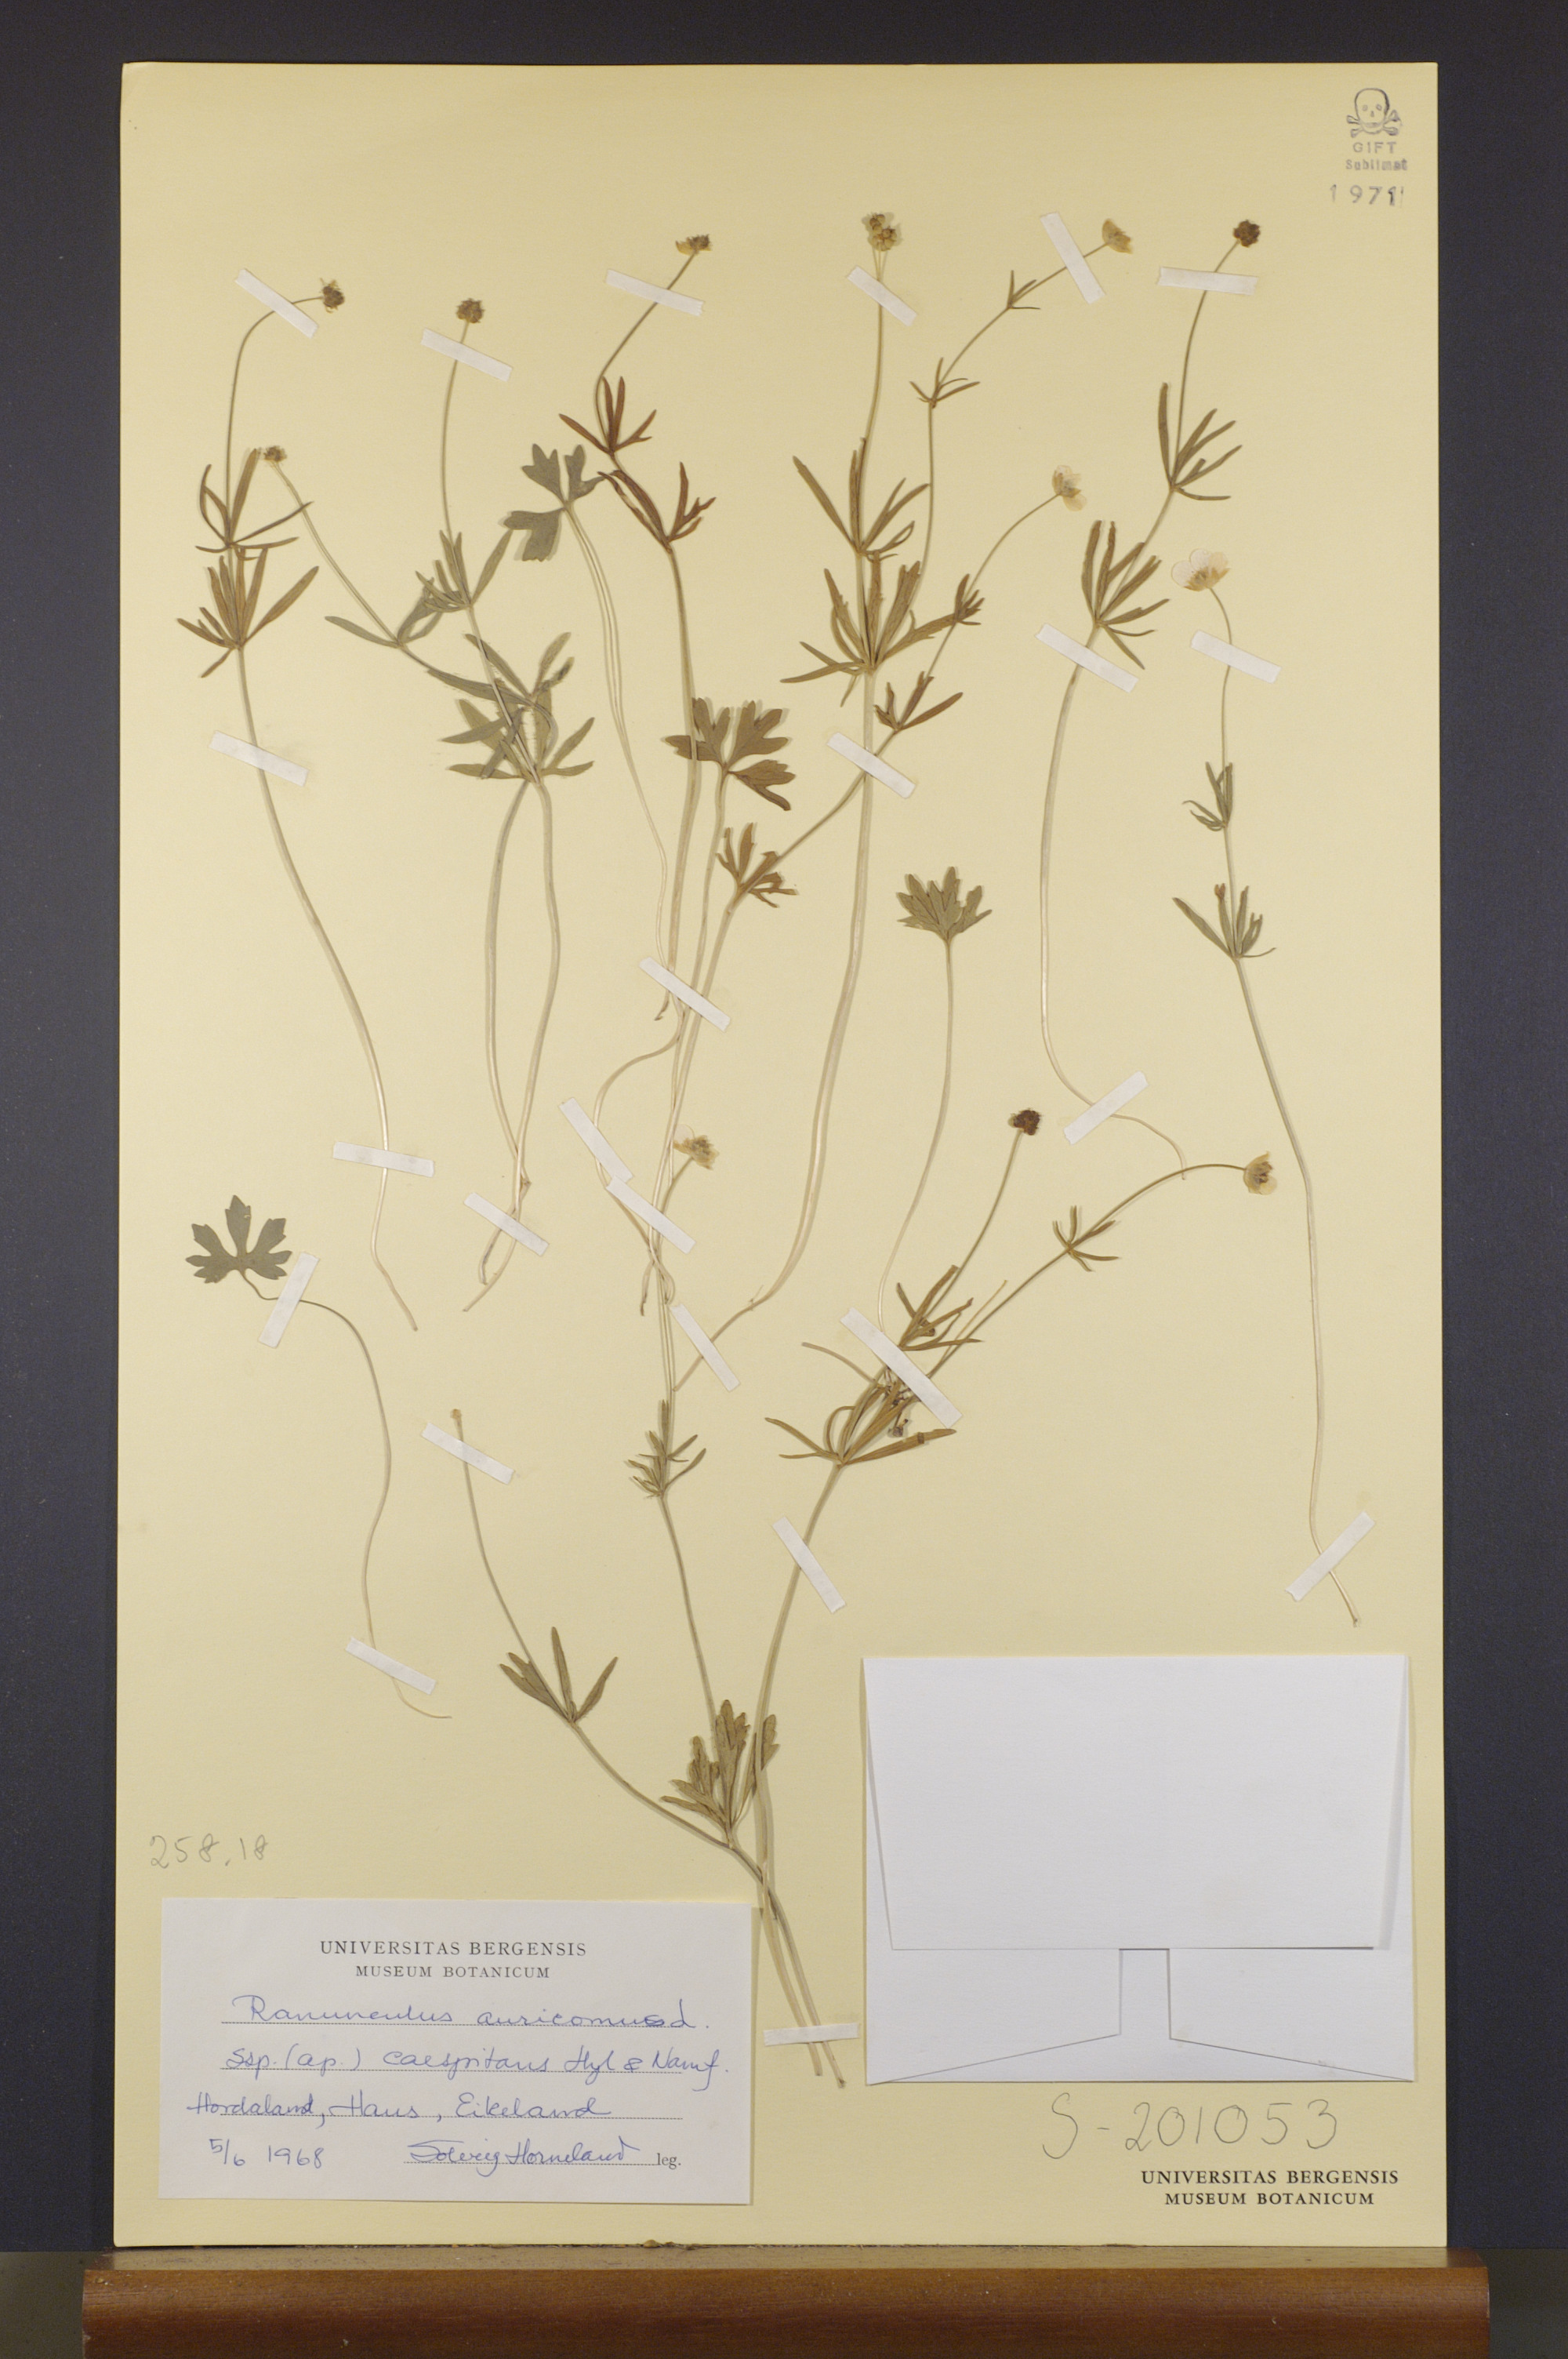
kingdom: Plantae
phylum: Tracheophyta
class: Magnoliopsida
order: Ranunculales
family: Ranunculaceae
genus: Ranunculus
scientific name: Ranunculus caespitans
